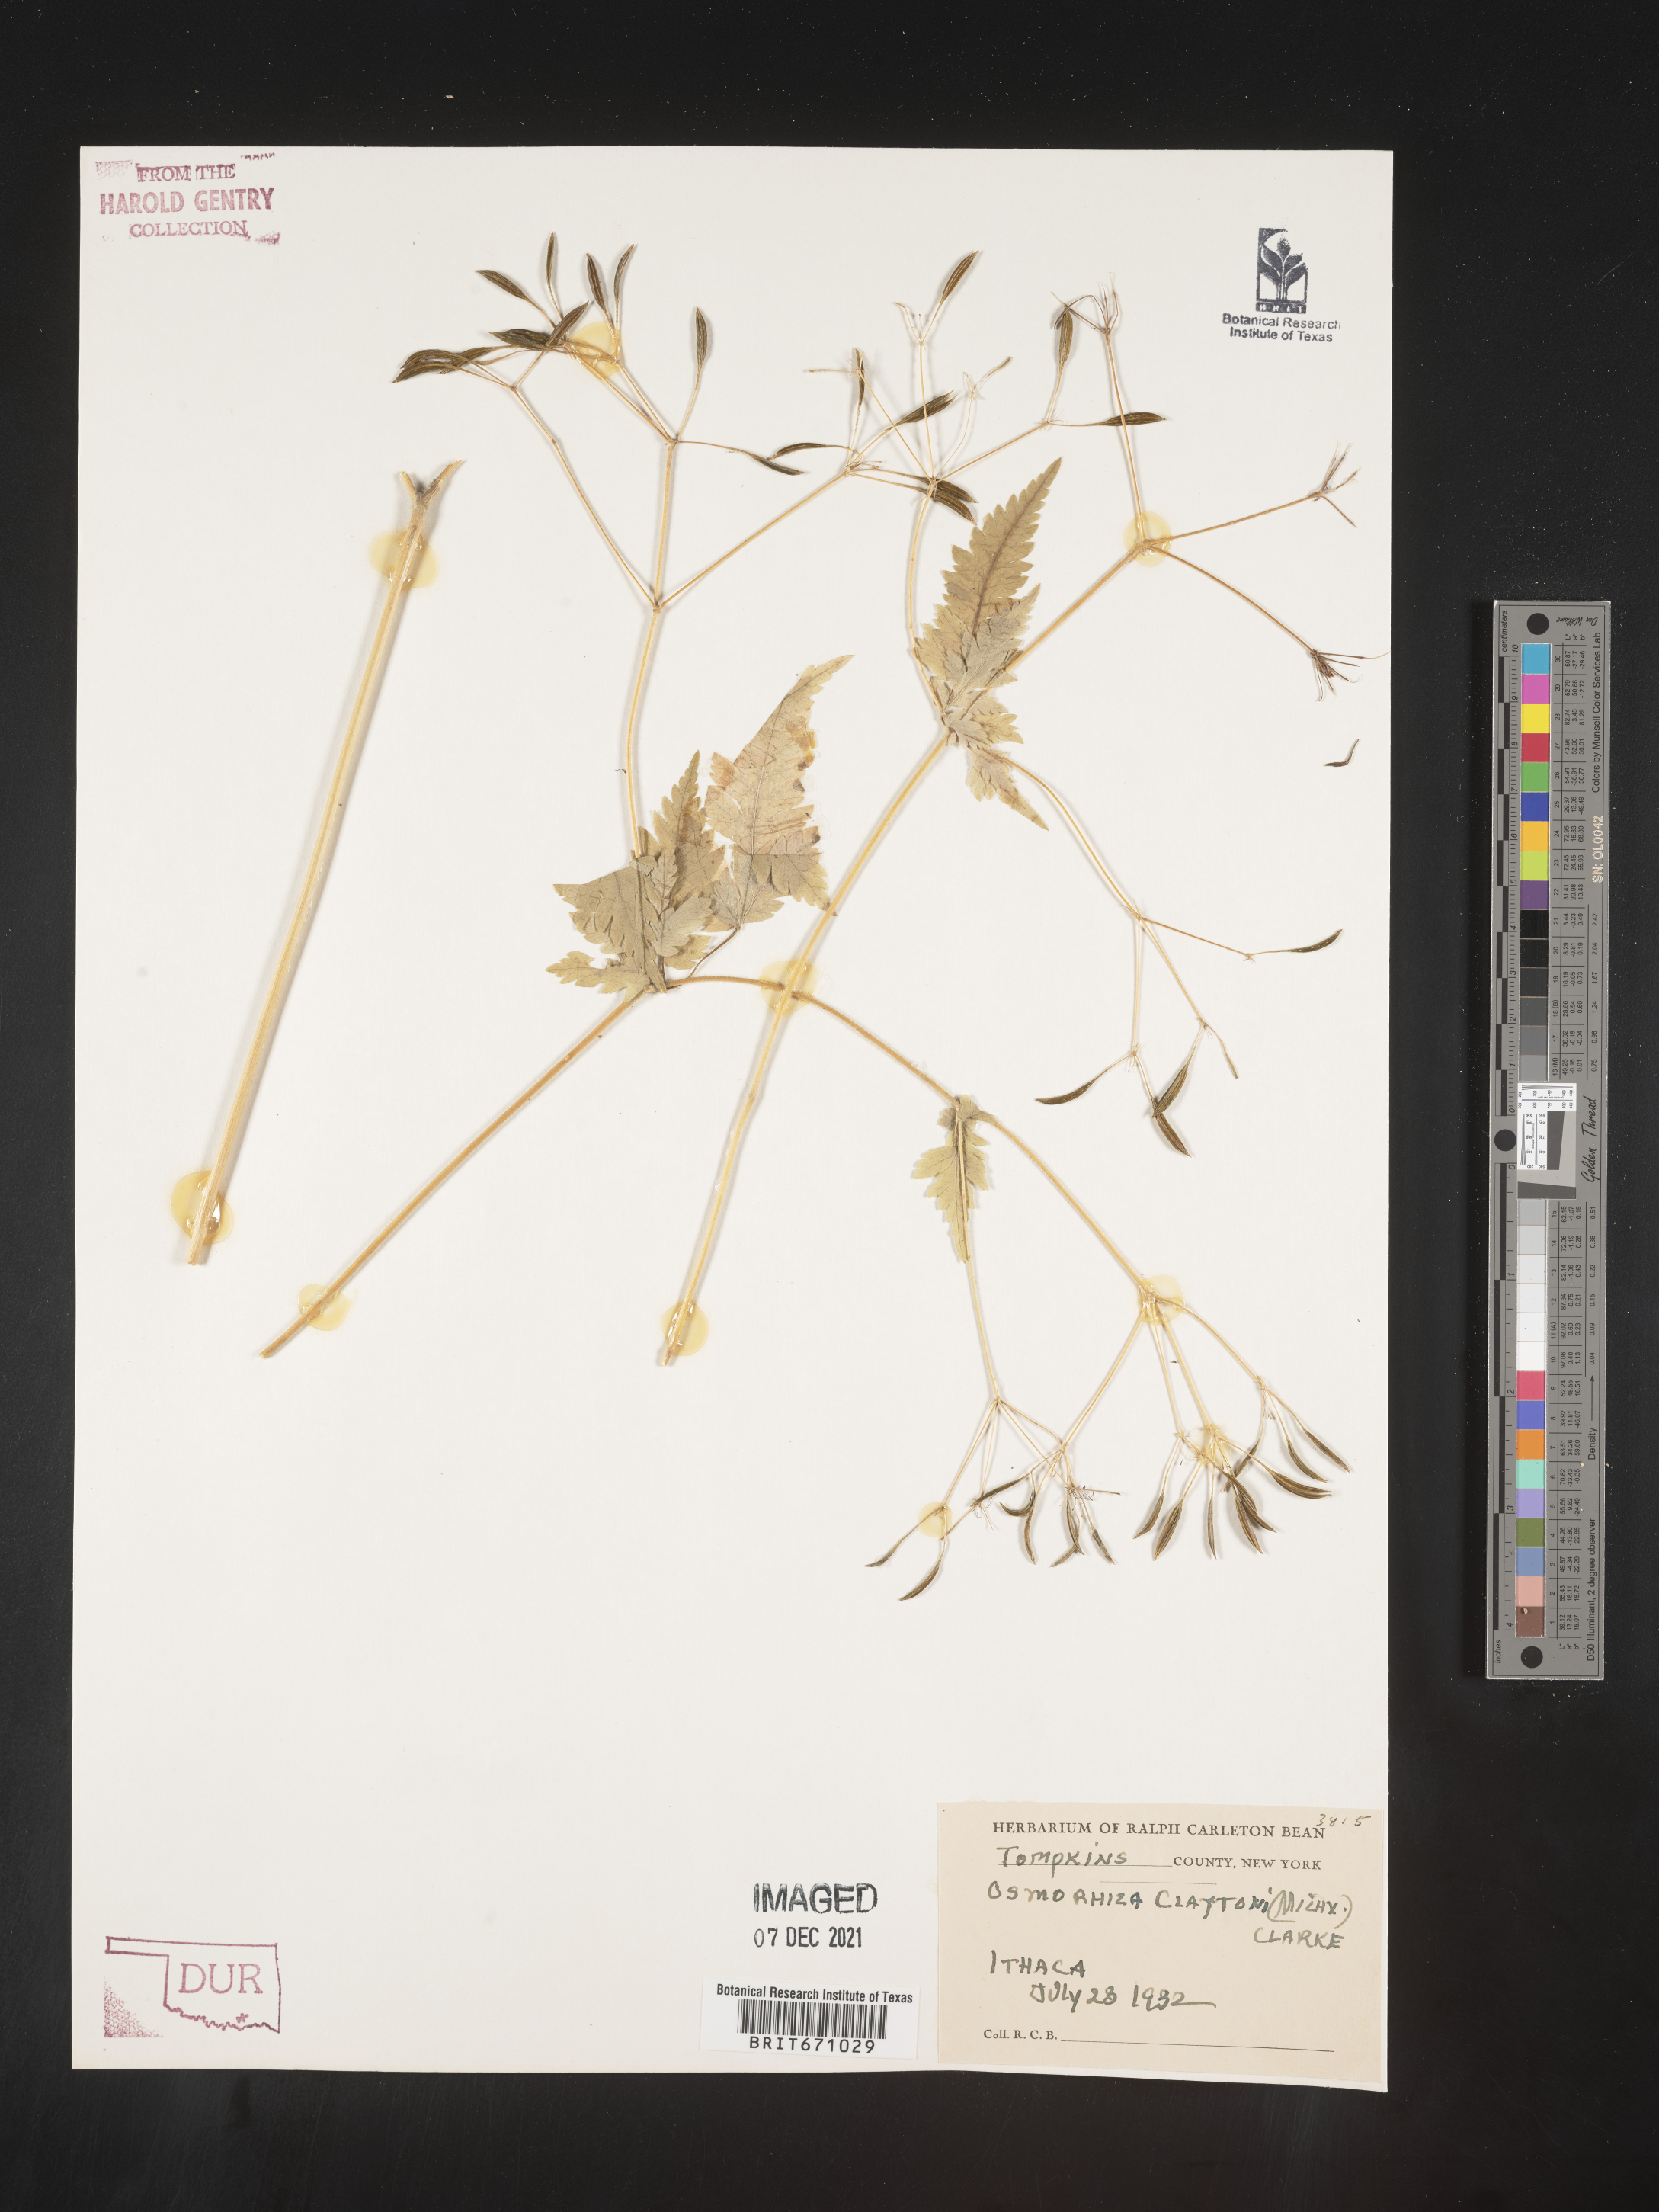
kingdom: Plantae
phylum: Tracheophyta
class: Magnoliopsida
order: Apiales
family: Apiaceae
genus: Osmorhiza
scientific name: Osmorhiza claytonii
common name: Hairy sweet cicely
